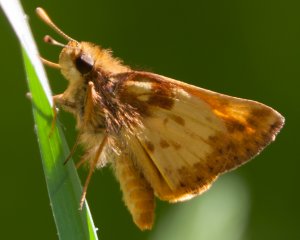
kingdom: Animalia
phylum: Arthropoda
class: Insecta
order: Lepidoptera
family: Hesperiidae
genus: Lon
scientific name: Lon zabulon
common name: Zabulon Skipper
